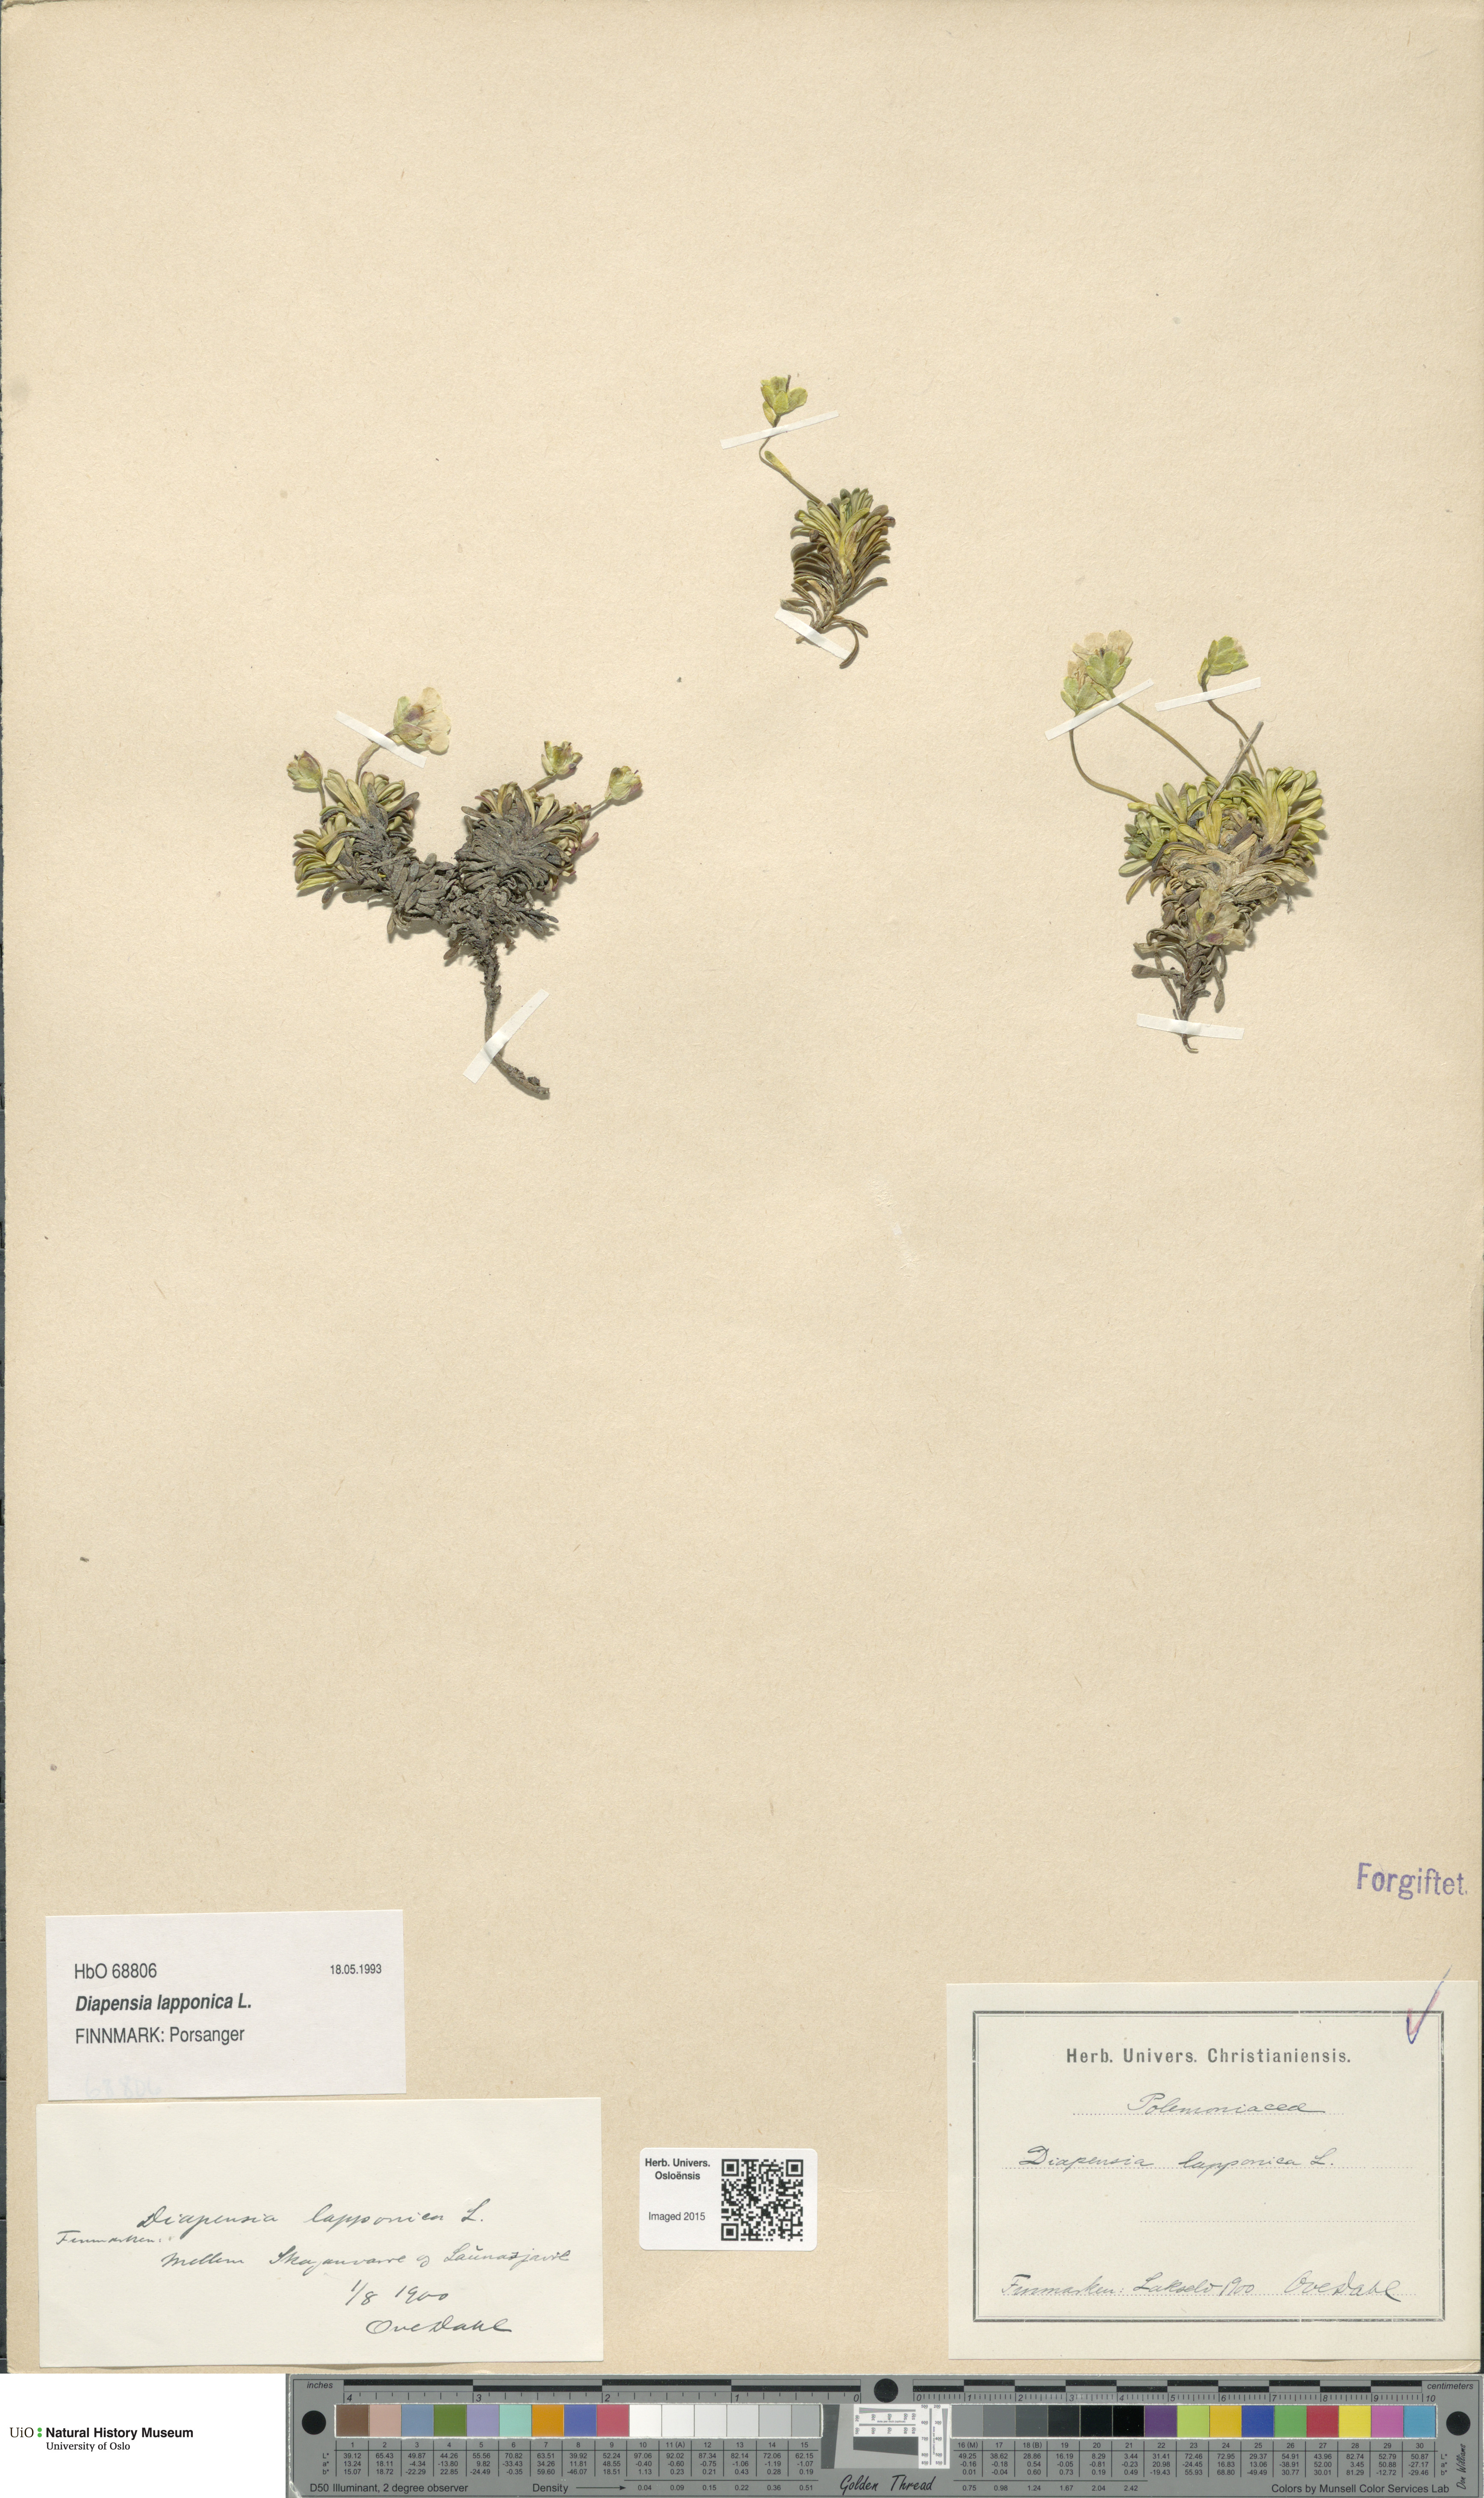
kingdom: Plantae
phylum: Tracheophyta
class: Magnoliopsida
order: Ericales
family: Diapensiaceae
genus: Diapensia
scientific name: Diapensia lapponica
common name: Diapensia
